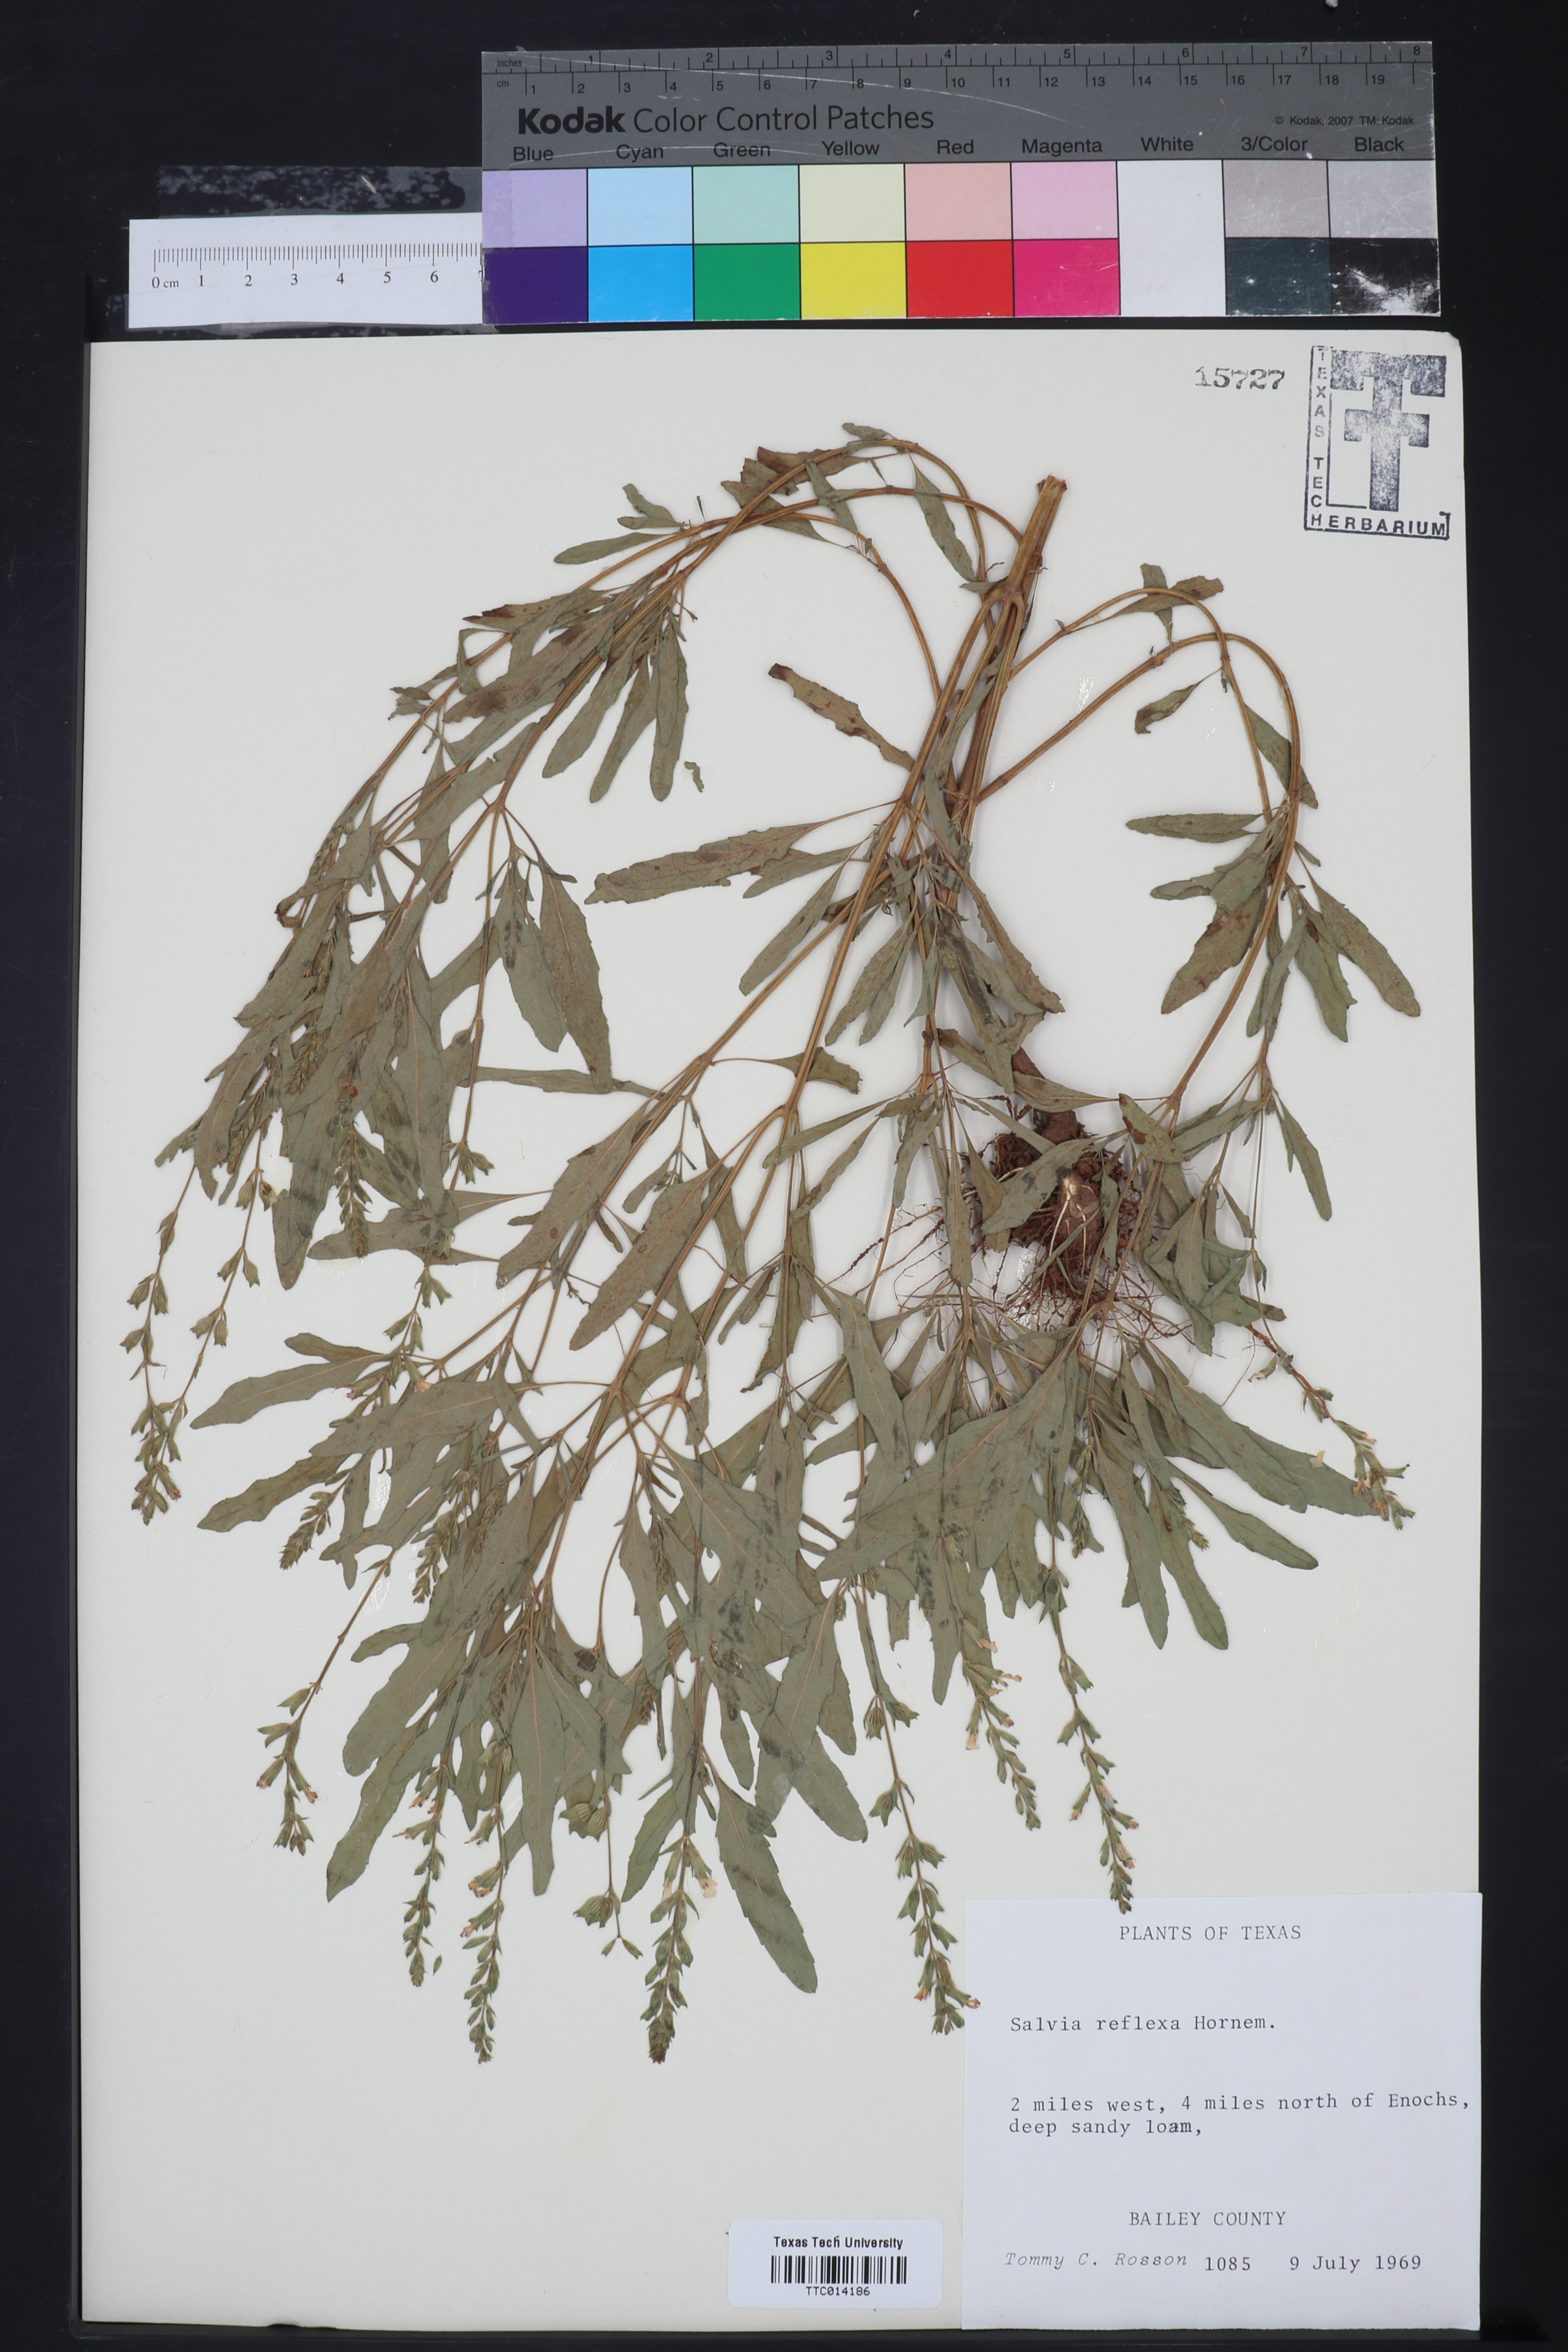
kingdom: Plantae
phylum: Tracheophyta
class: Magnoliopsida
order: Lamiales
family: Lamiaceae
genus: Salvia
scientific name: Salvia reflexa
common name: Mintweed
